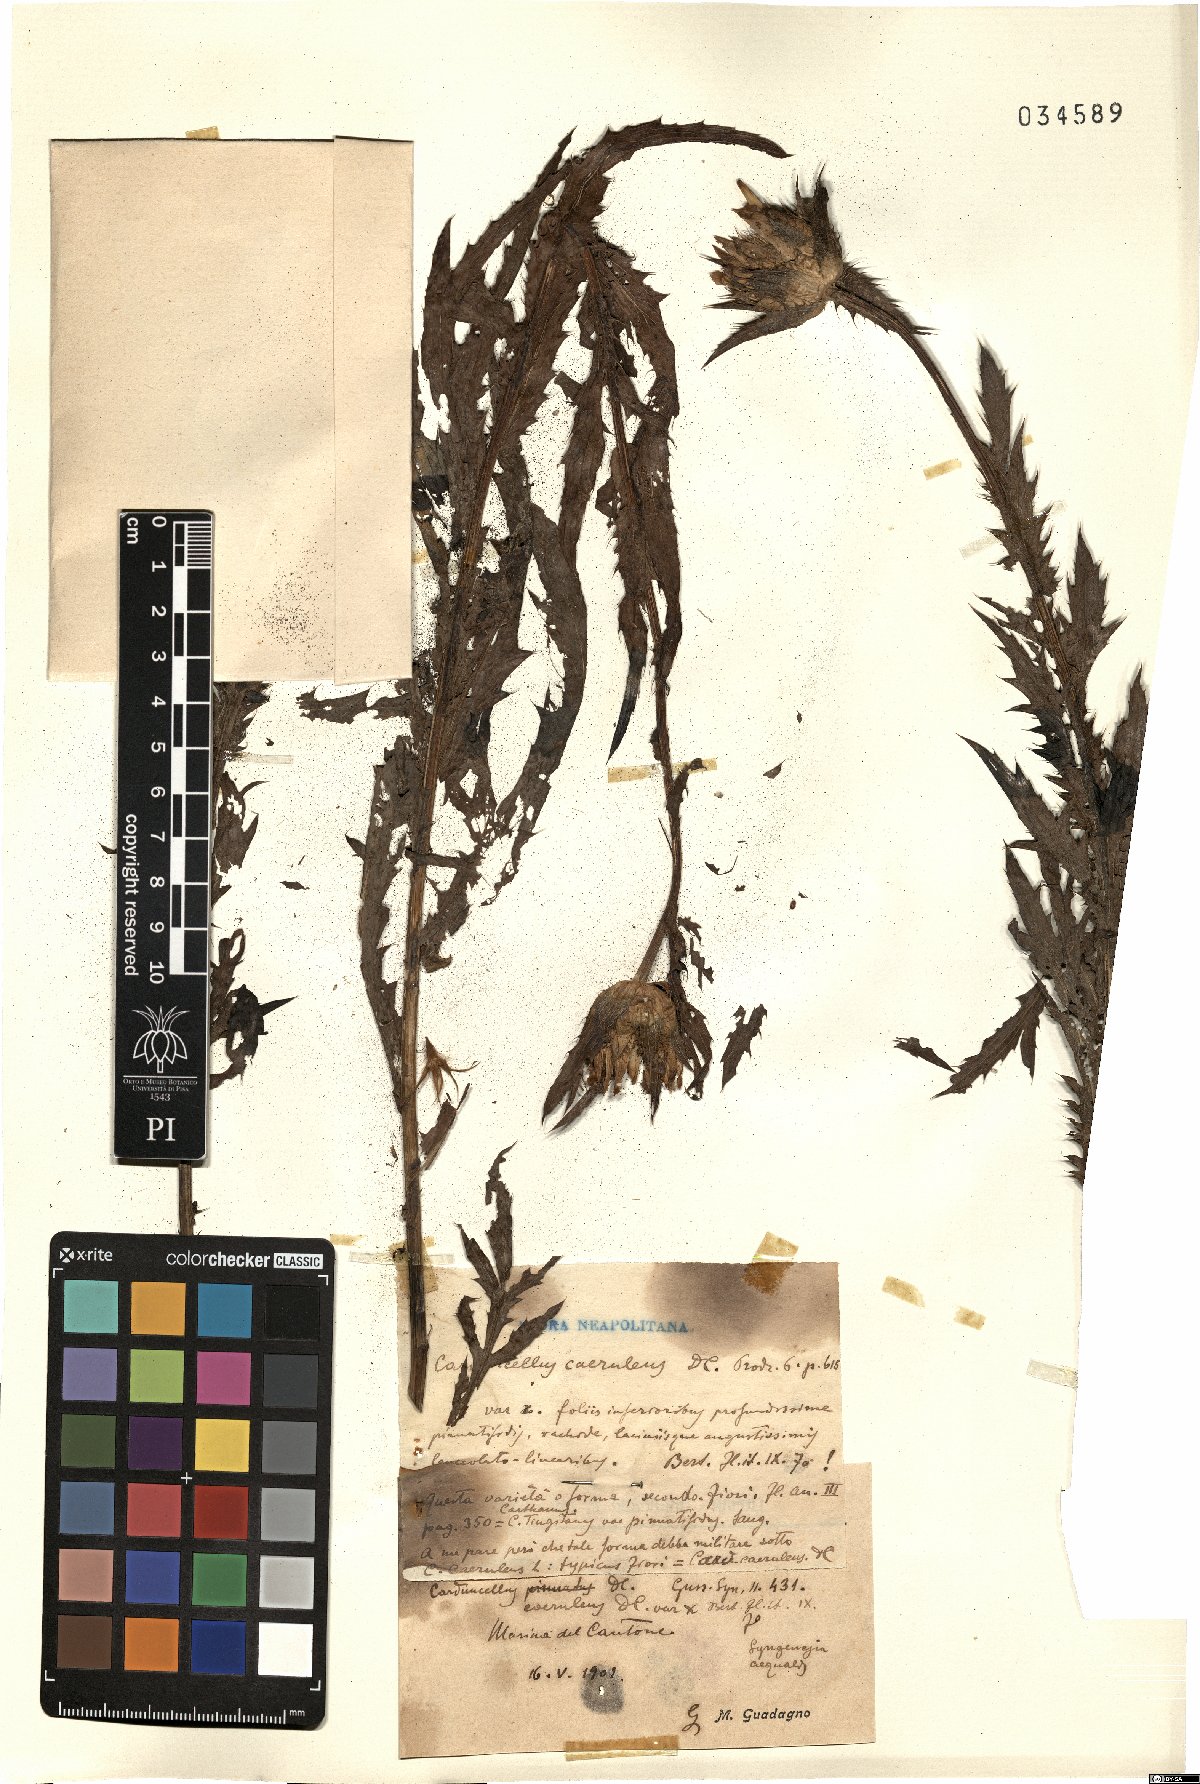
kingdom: Plantae
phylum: Tracheophyta
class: Magnoliopsida
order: Asterales
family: Asteraceae
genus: Carduncellus
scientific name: Carduncellus caeruleus
